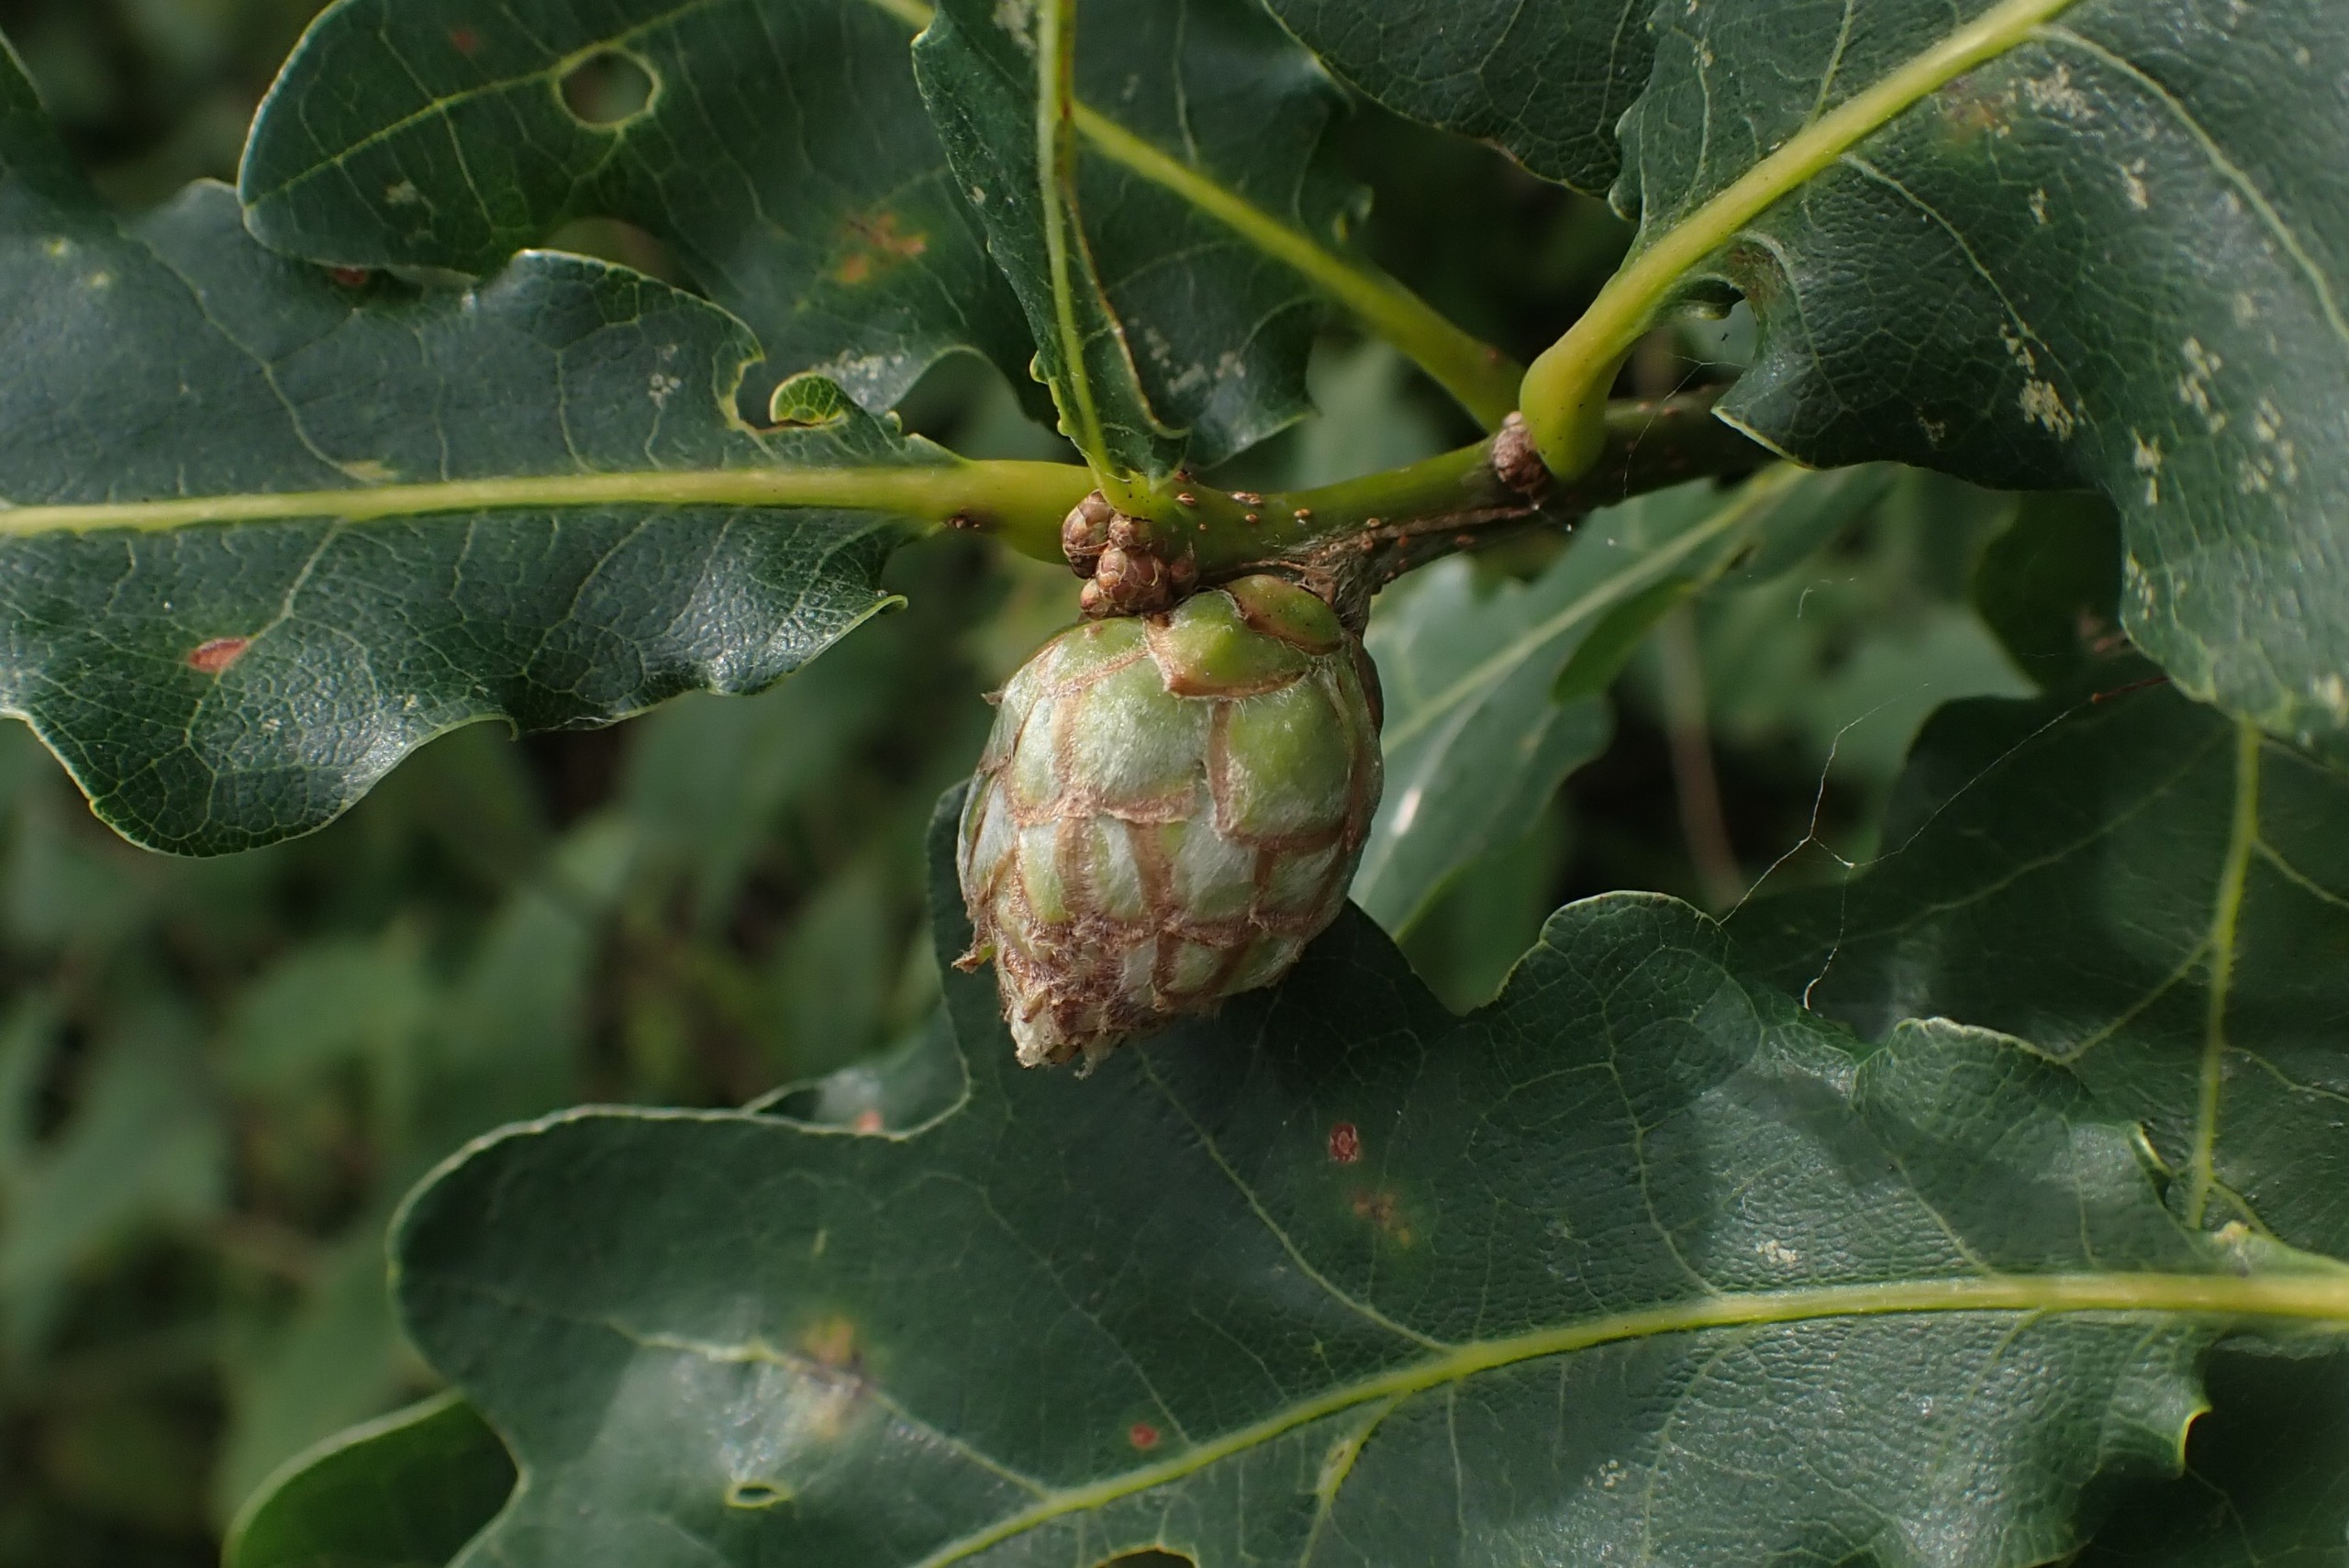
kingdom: Animalia
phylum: Arthropoda
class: Insecta
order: Hymenoptera
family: Cynipidae
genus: Andricus
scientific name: Andricus foecundatrix
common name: Artiskokgalhveps
